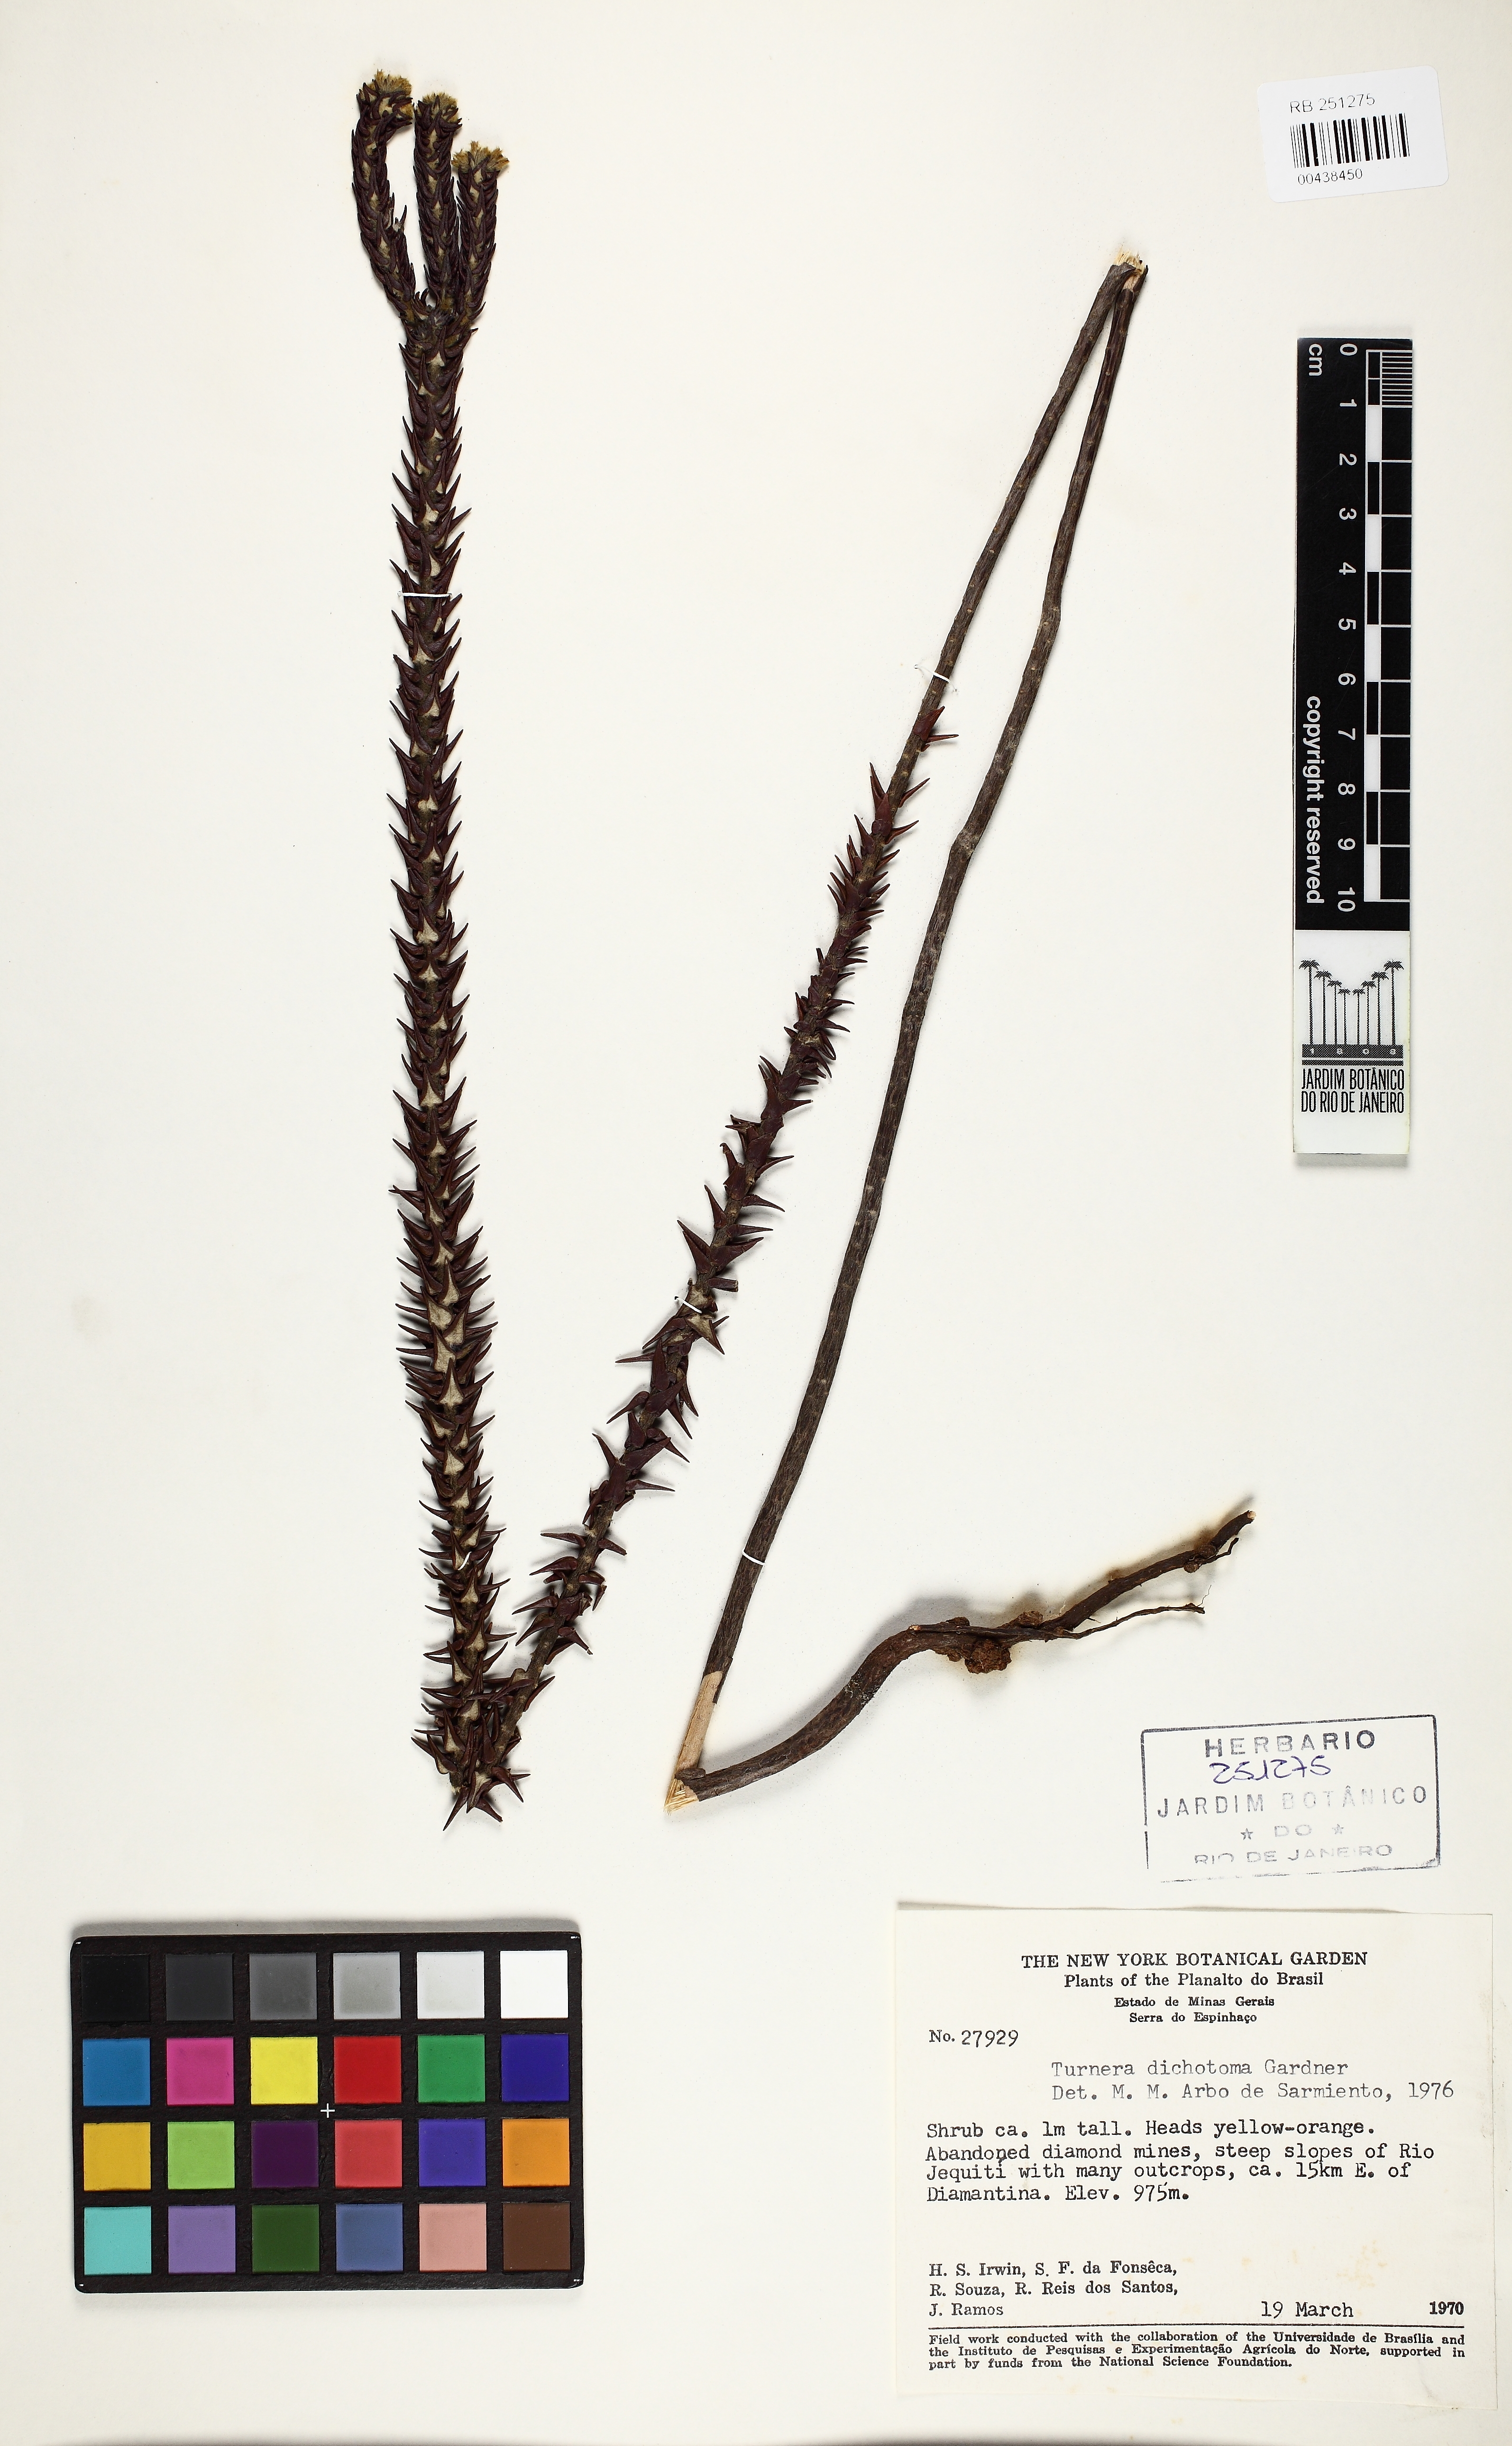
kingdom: Plantae
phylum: Tracheophyta
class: Magnoliopsida
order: Malpighiales
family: Turneraceae
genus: Turnera
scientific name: Turnera dichotoma
